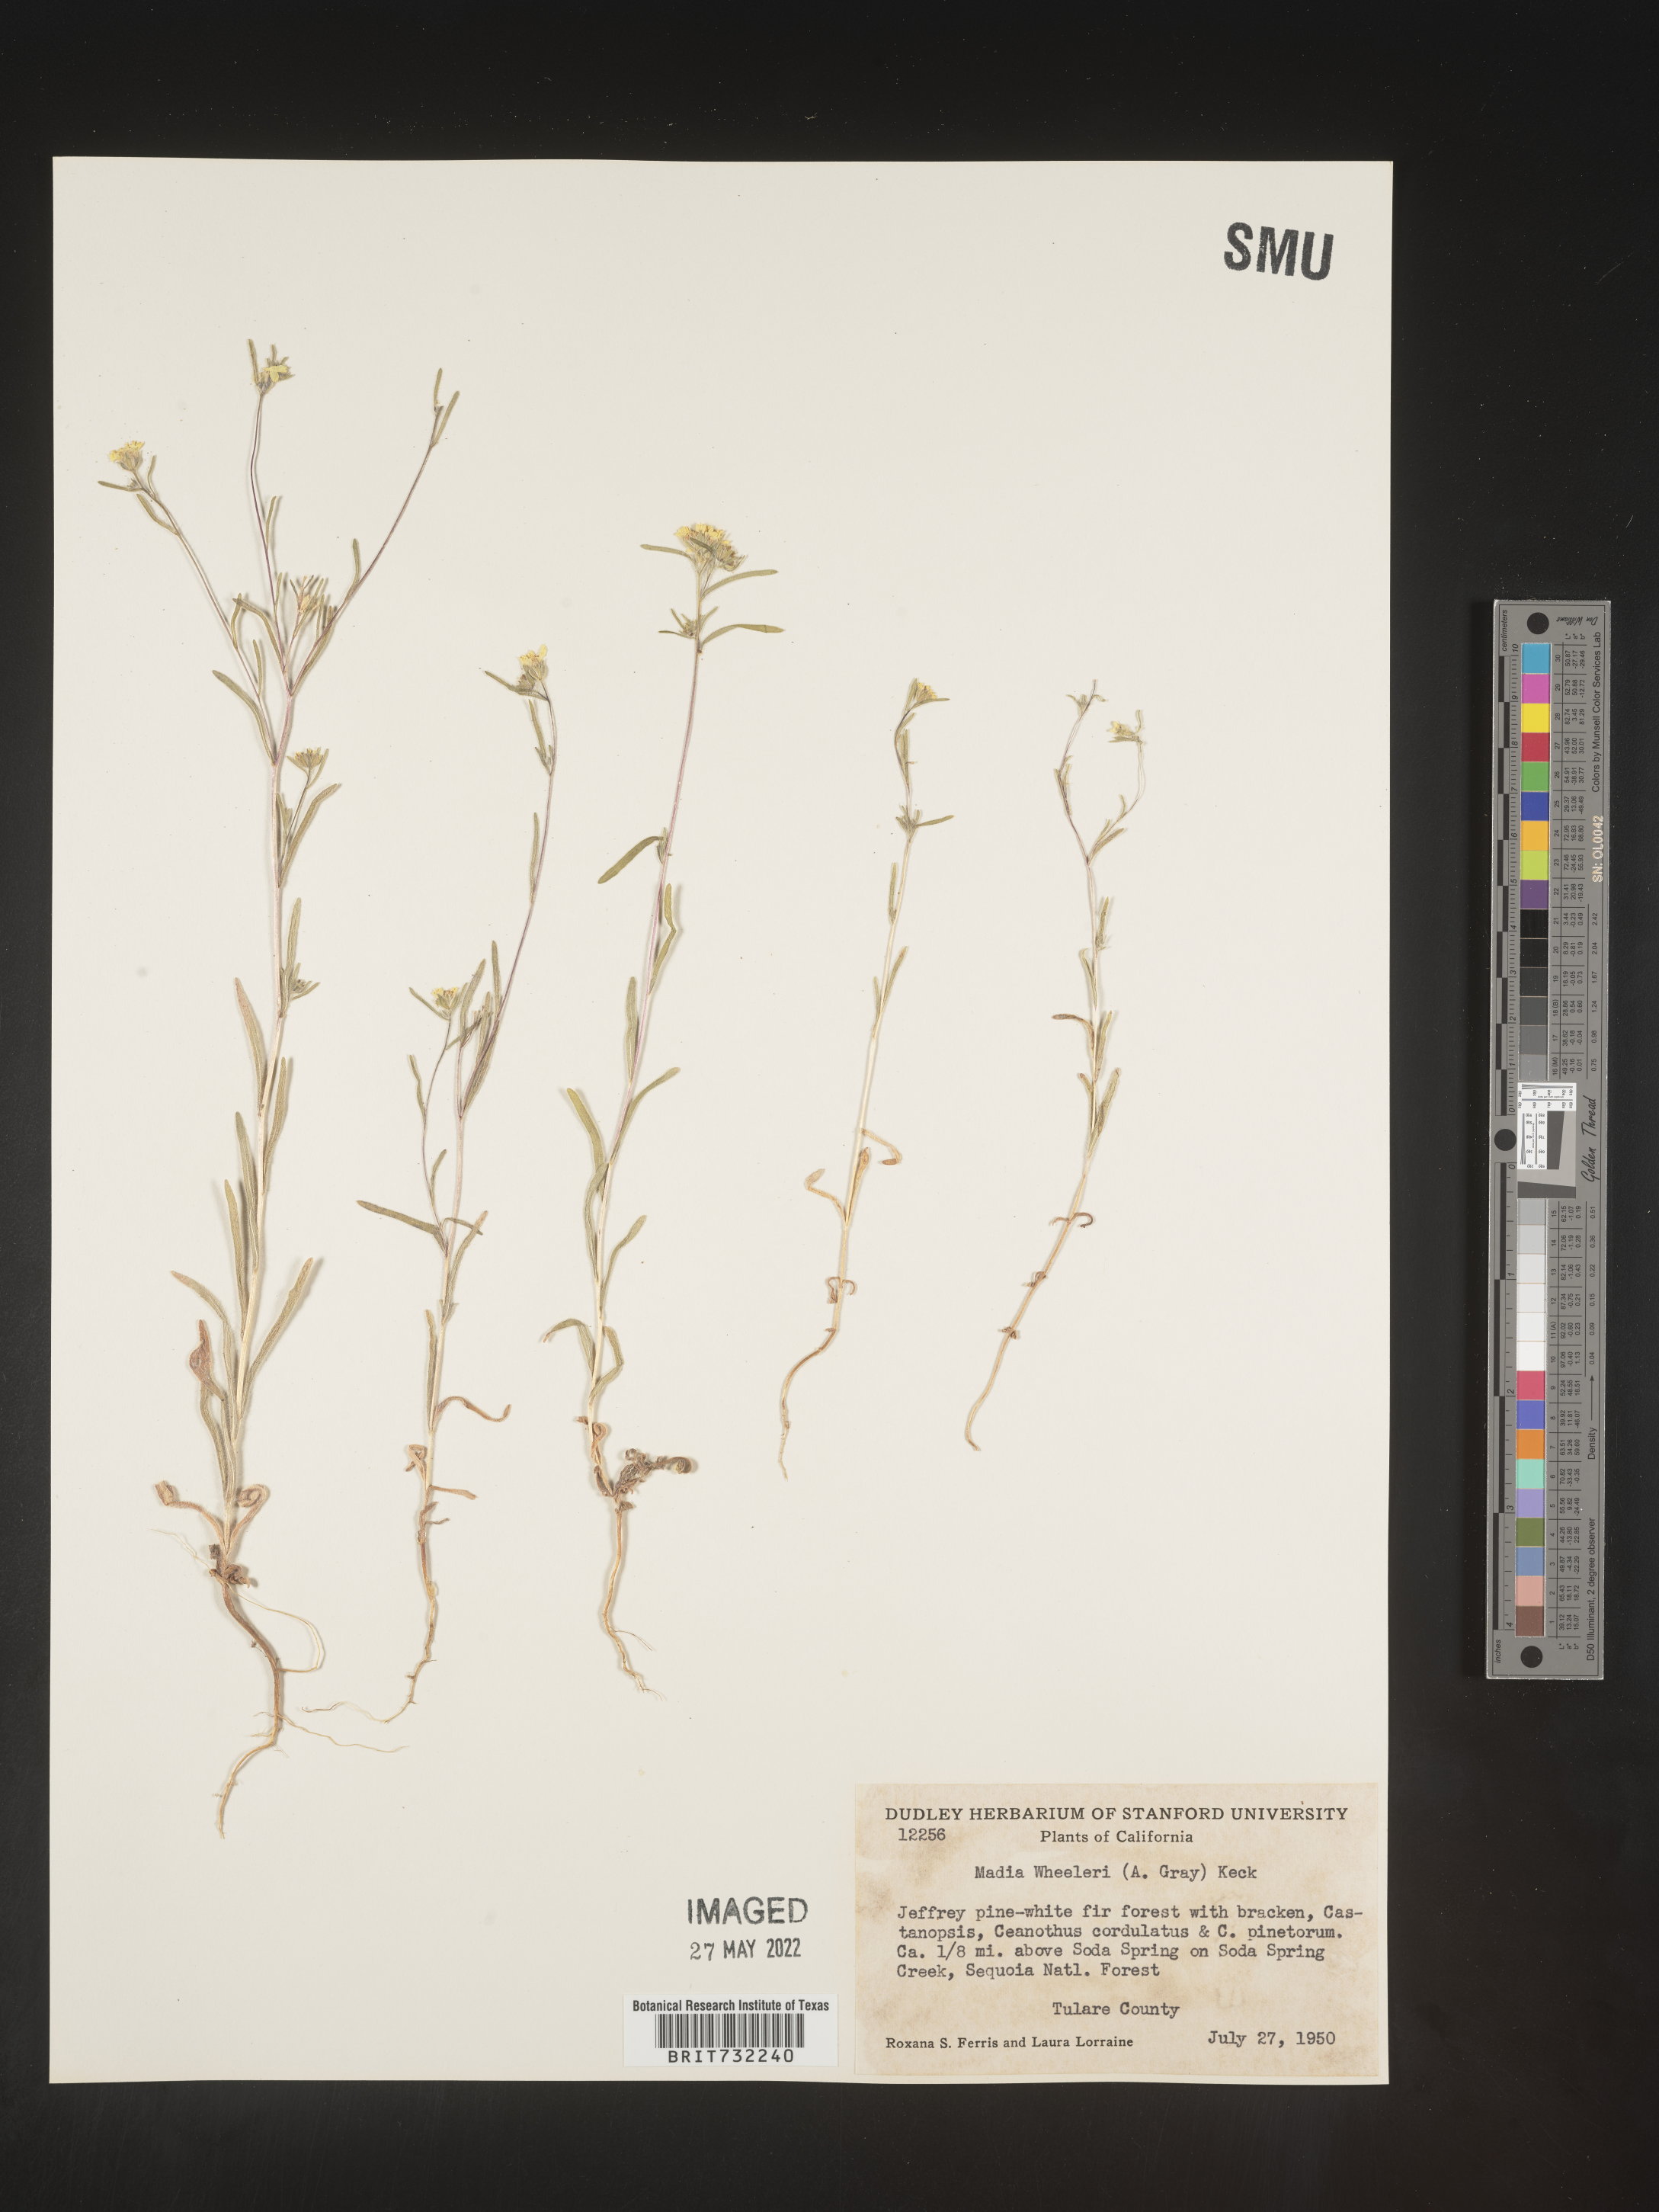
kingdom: Plantae
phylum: Tracheophyta
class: Magnoliopsida
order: Asterales
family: Asteraceae
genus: Madia
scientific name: Madia
